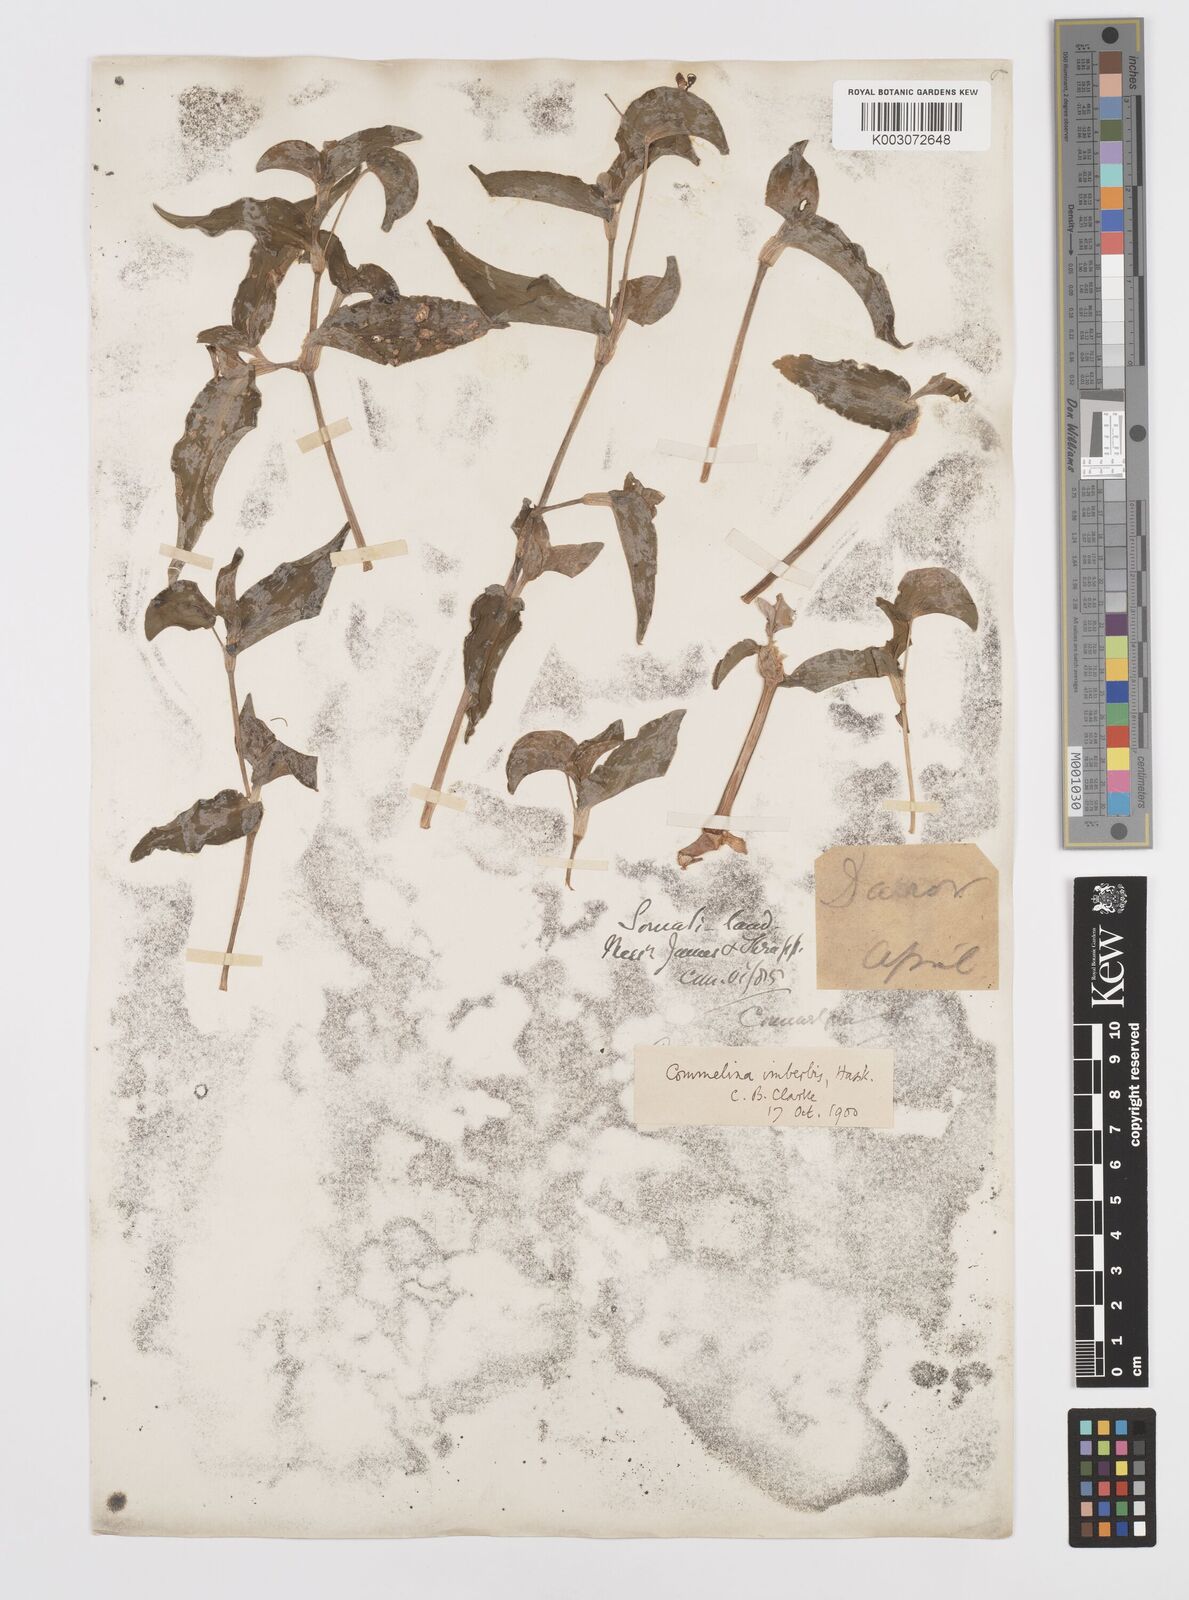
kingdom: Plantae
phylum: Tracheophyta
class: Liliopsida
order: Commelinales
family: Commelinaceae
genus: Commelina
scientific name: Commelina stefaniniana
